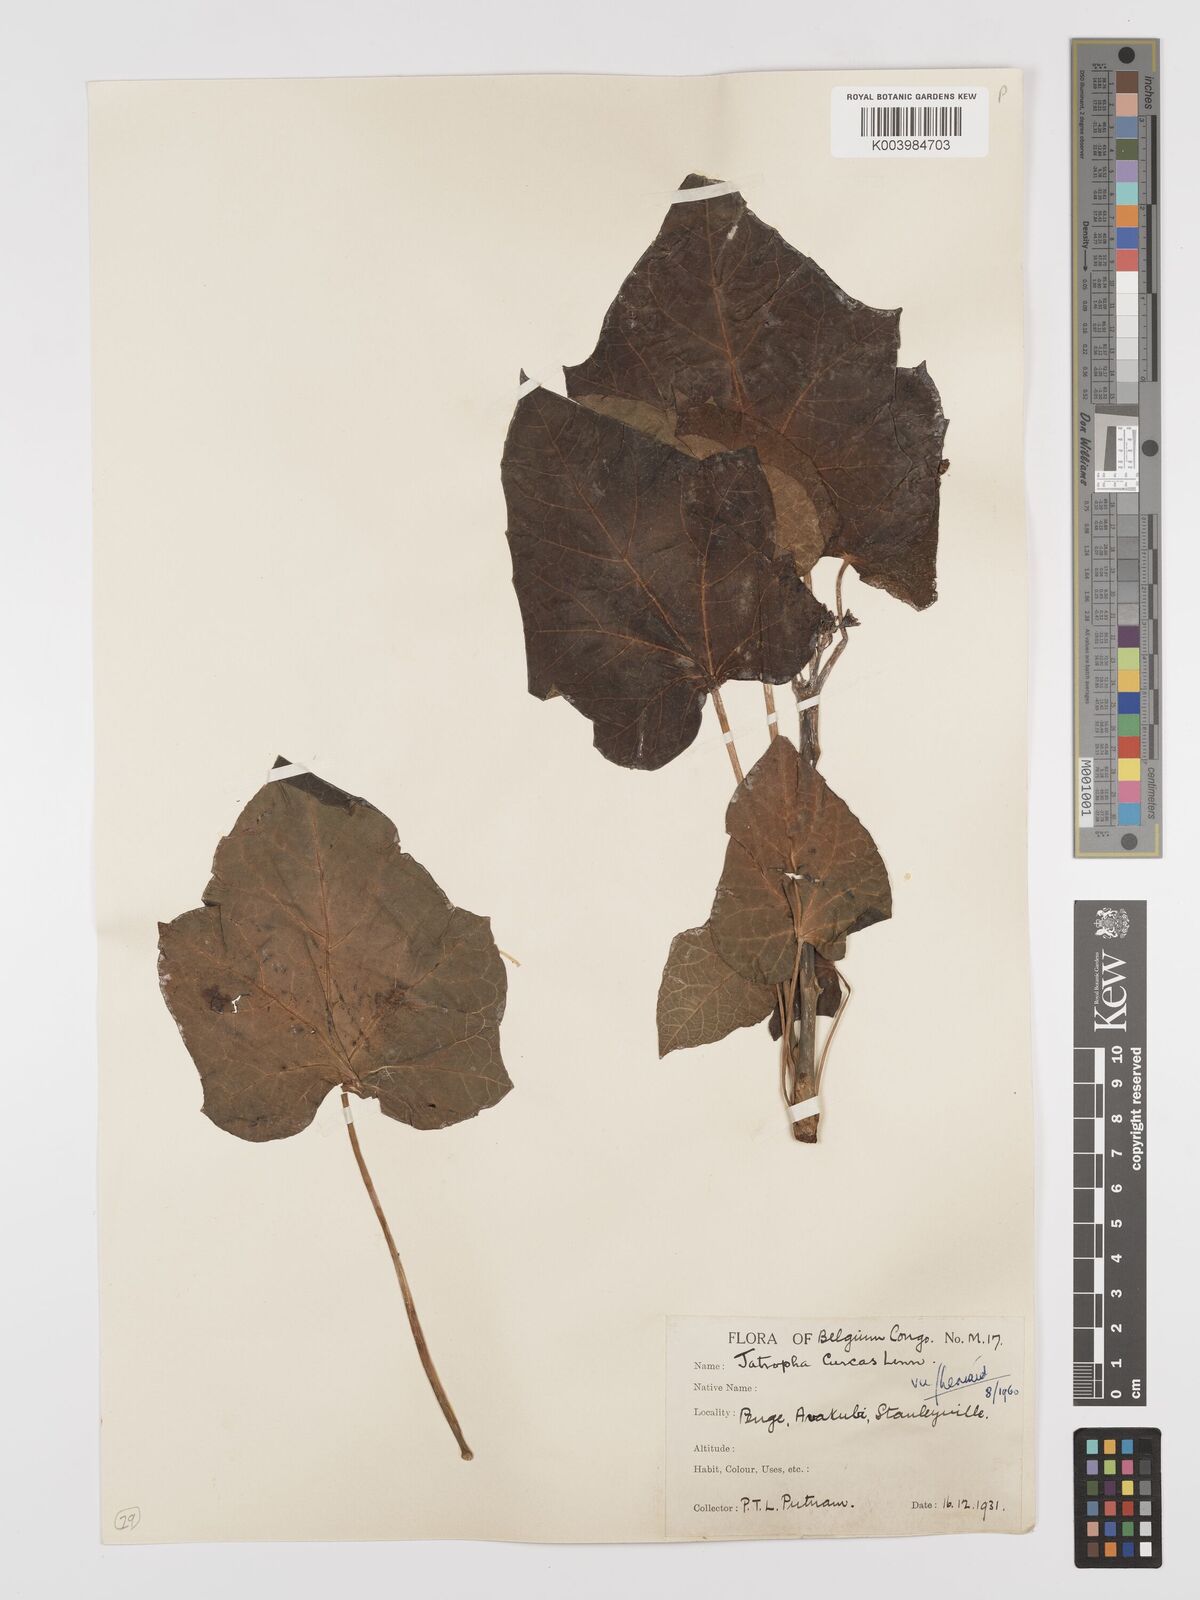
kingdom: Plantae
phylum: Tracheophyta
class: Magnoliopsida
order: Malpighiales
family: Euphorbiaceae
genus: Jatropha
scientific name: Jatropha curcas
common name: Barbados nut
